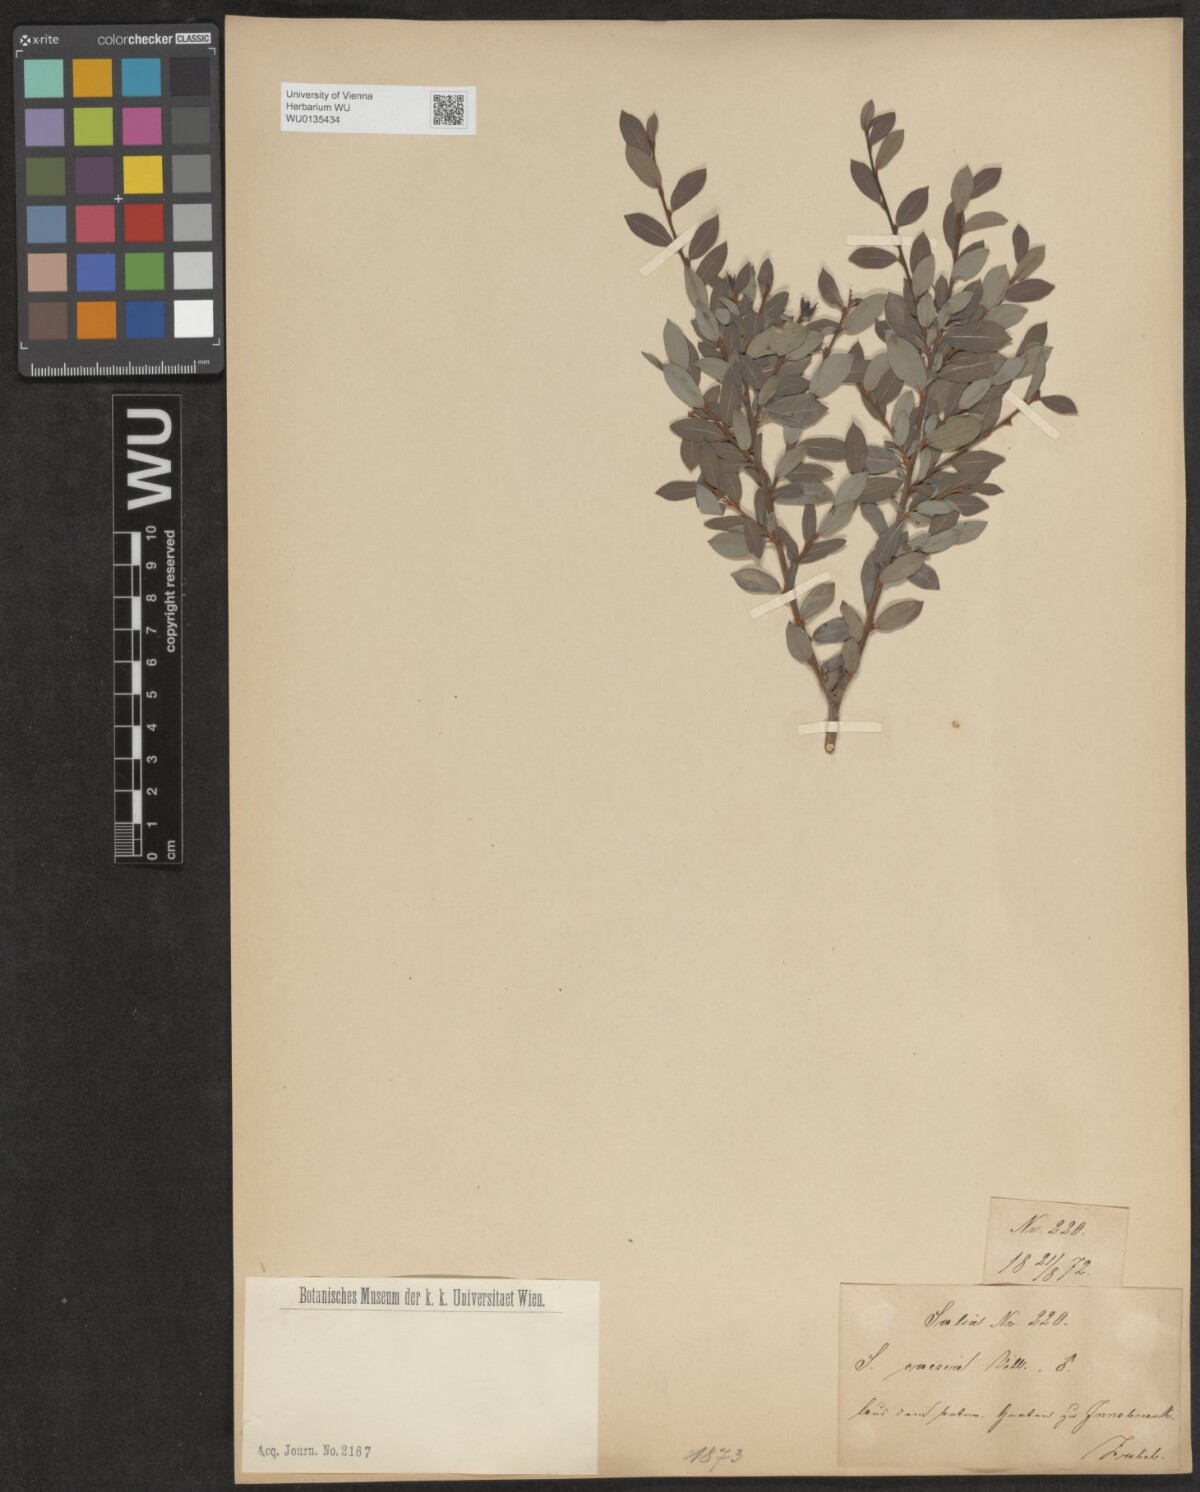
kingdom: Plantae
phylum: Tracheophyta
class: Magnoliopsida
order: Malpighiales
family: Salicaceae
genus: Salix
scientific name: Salix caesia
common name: Blue willow
